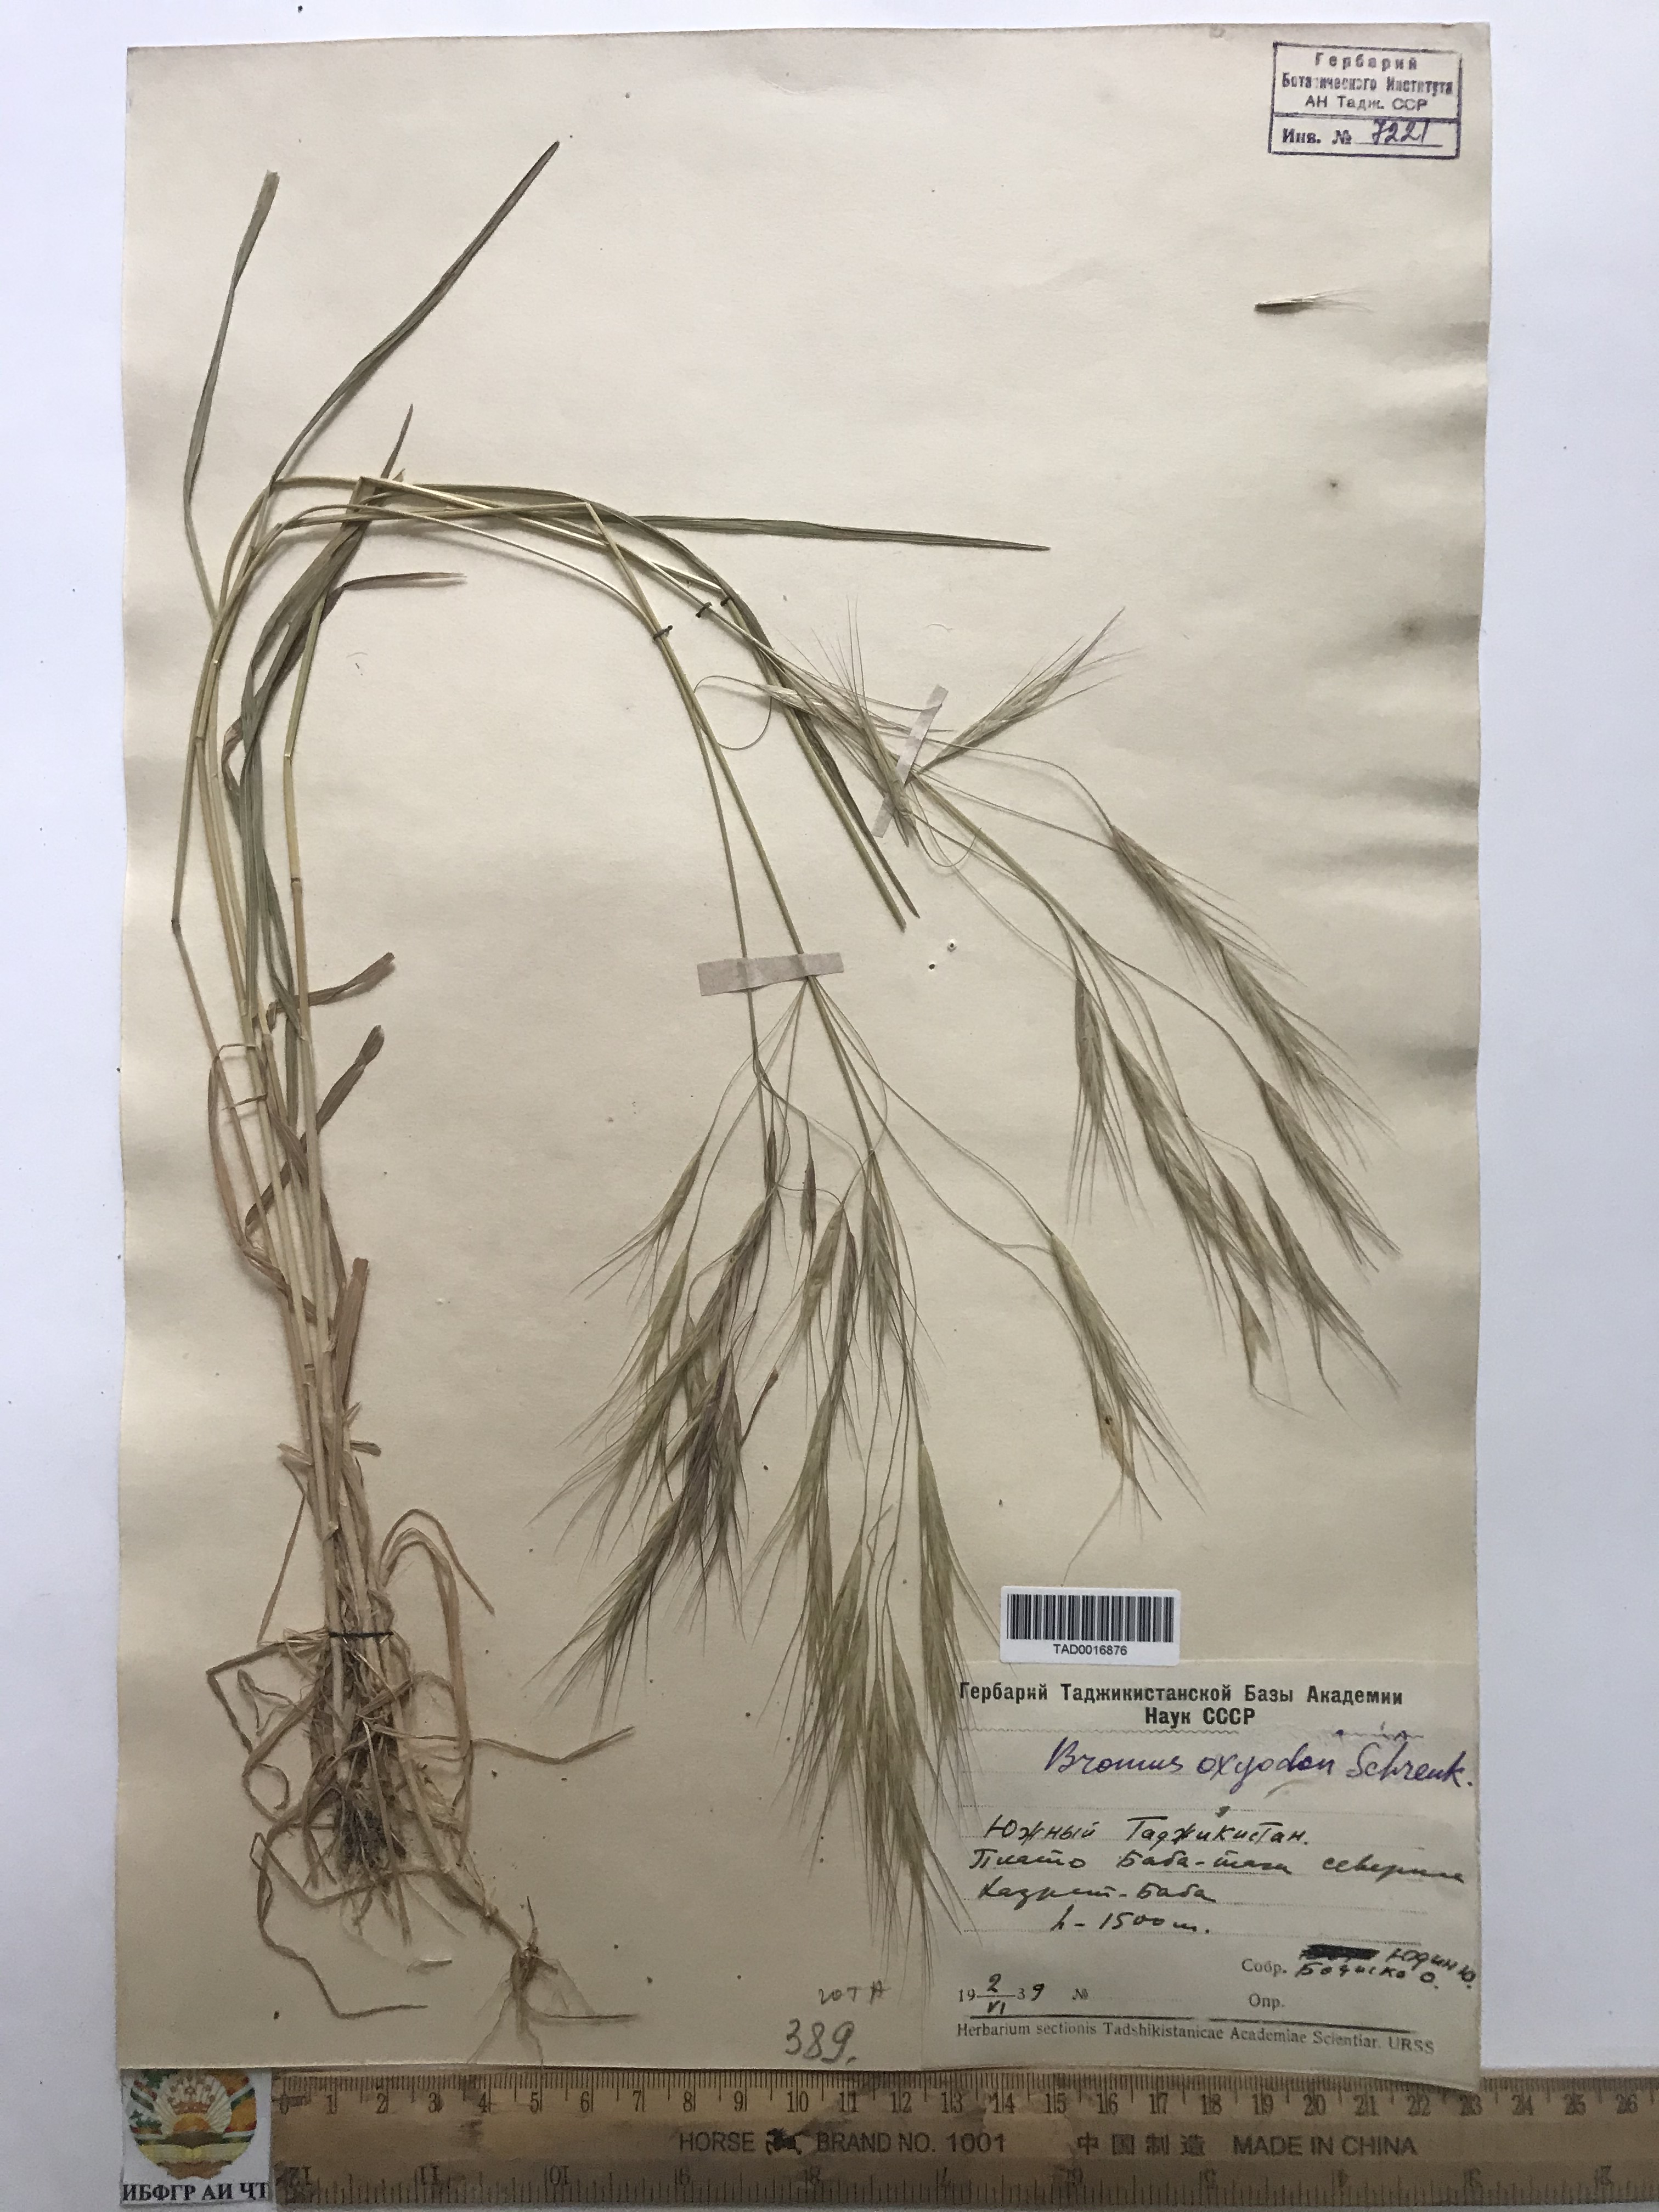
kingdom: Plantae
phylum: Tracheophyta
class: Liliopsida
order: Poales
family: Poaceae
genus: Bromus
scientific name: Bromus oxyodon
